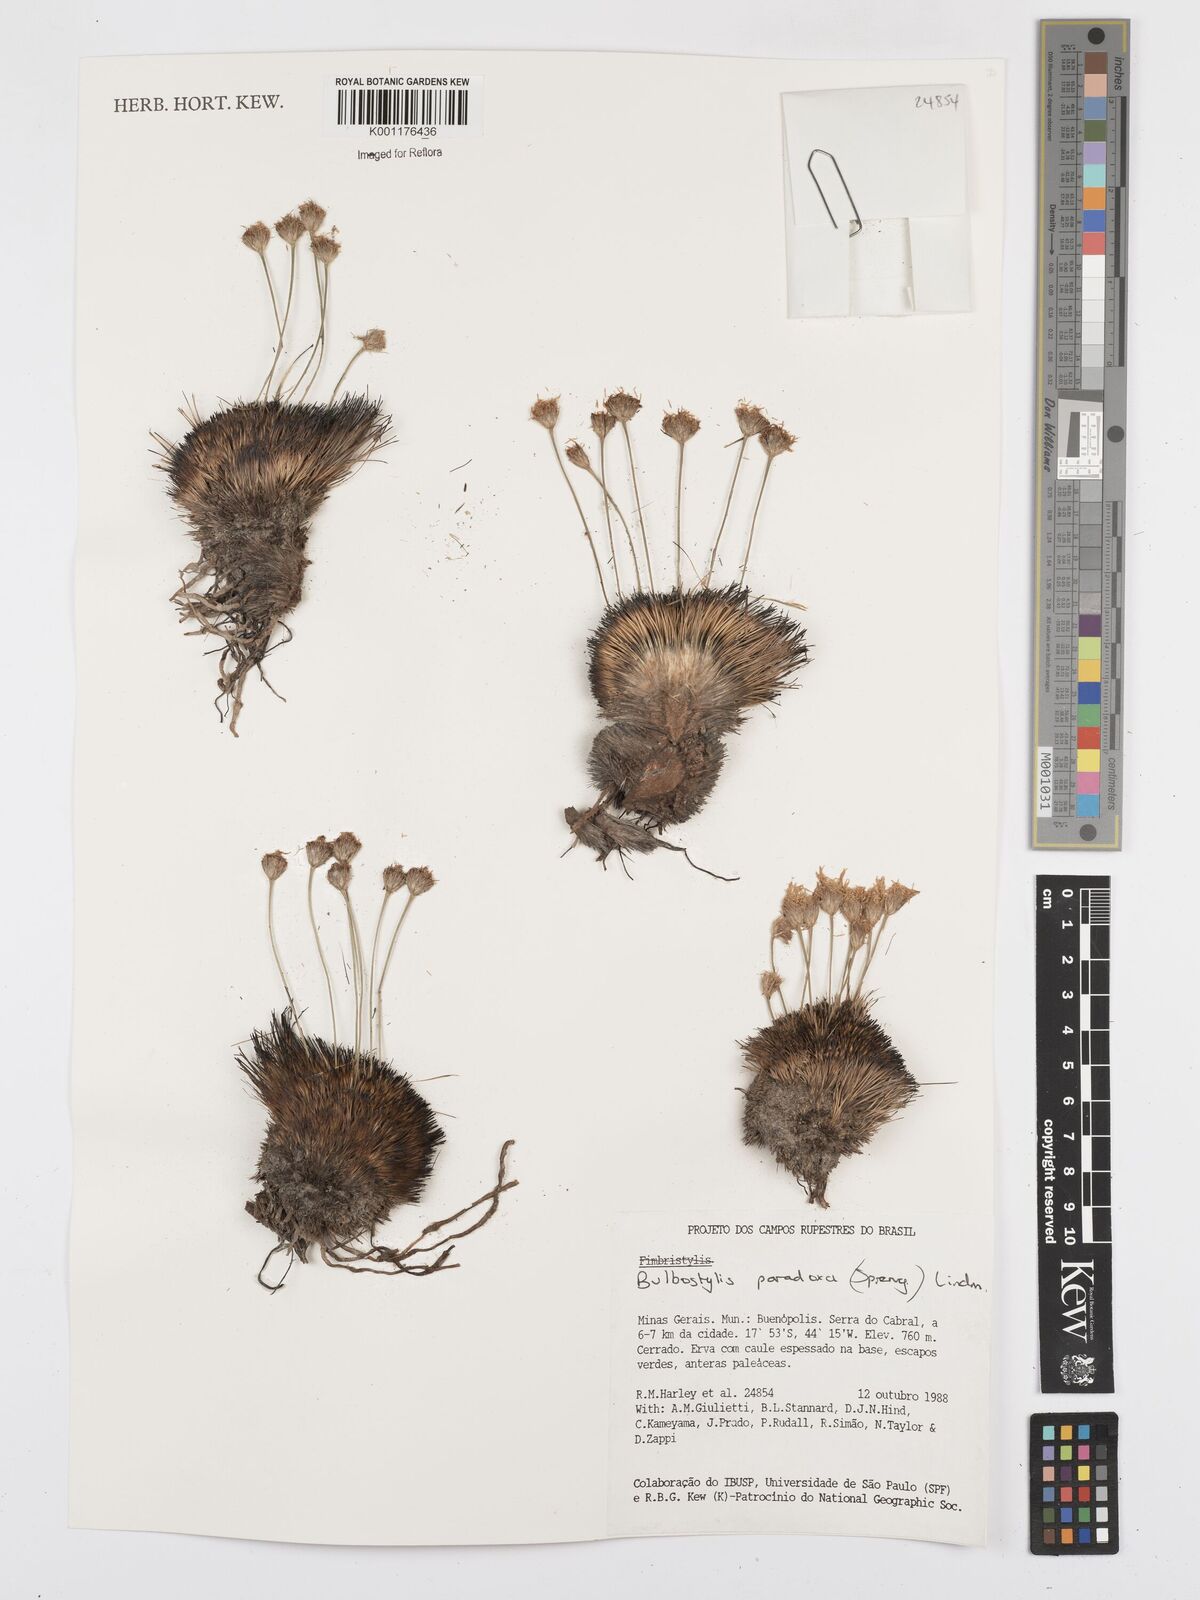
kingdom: Plantae
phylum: Tracheophyta
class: Liliopsida
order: Poales
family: Cyperaceae
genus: Bulbostylis
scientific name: Bulbostylis paradoxa
